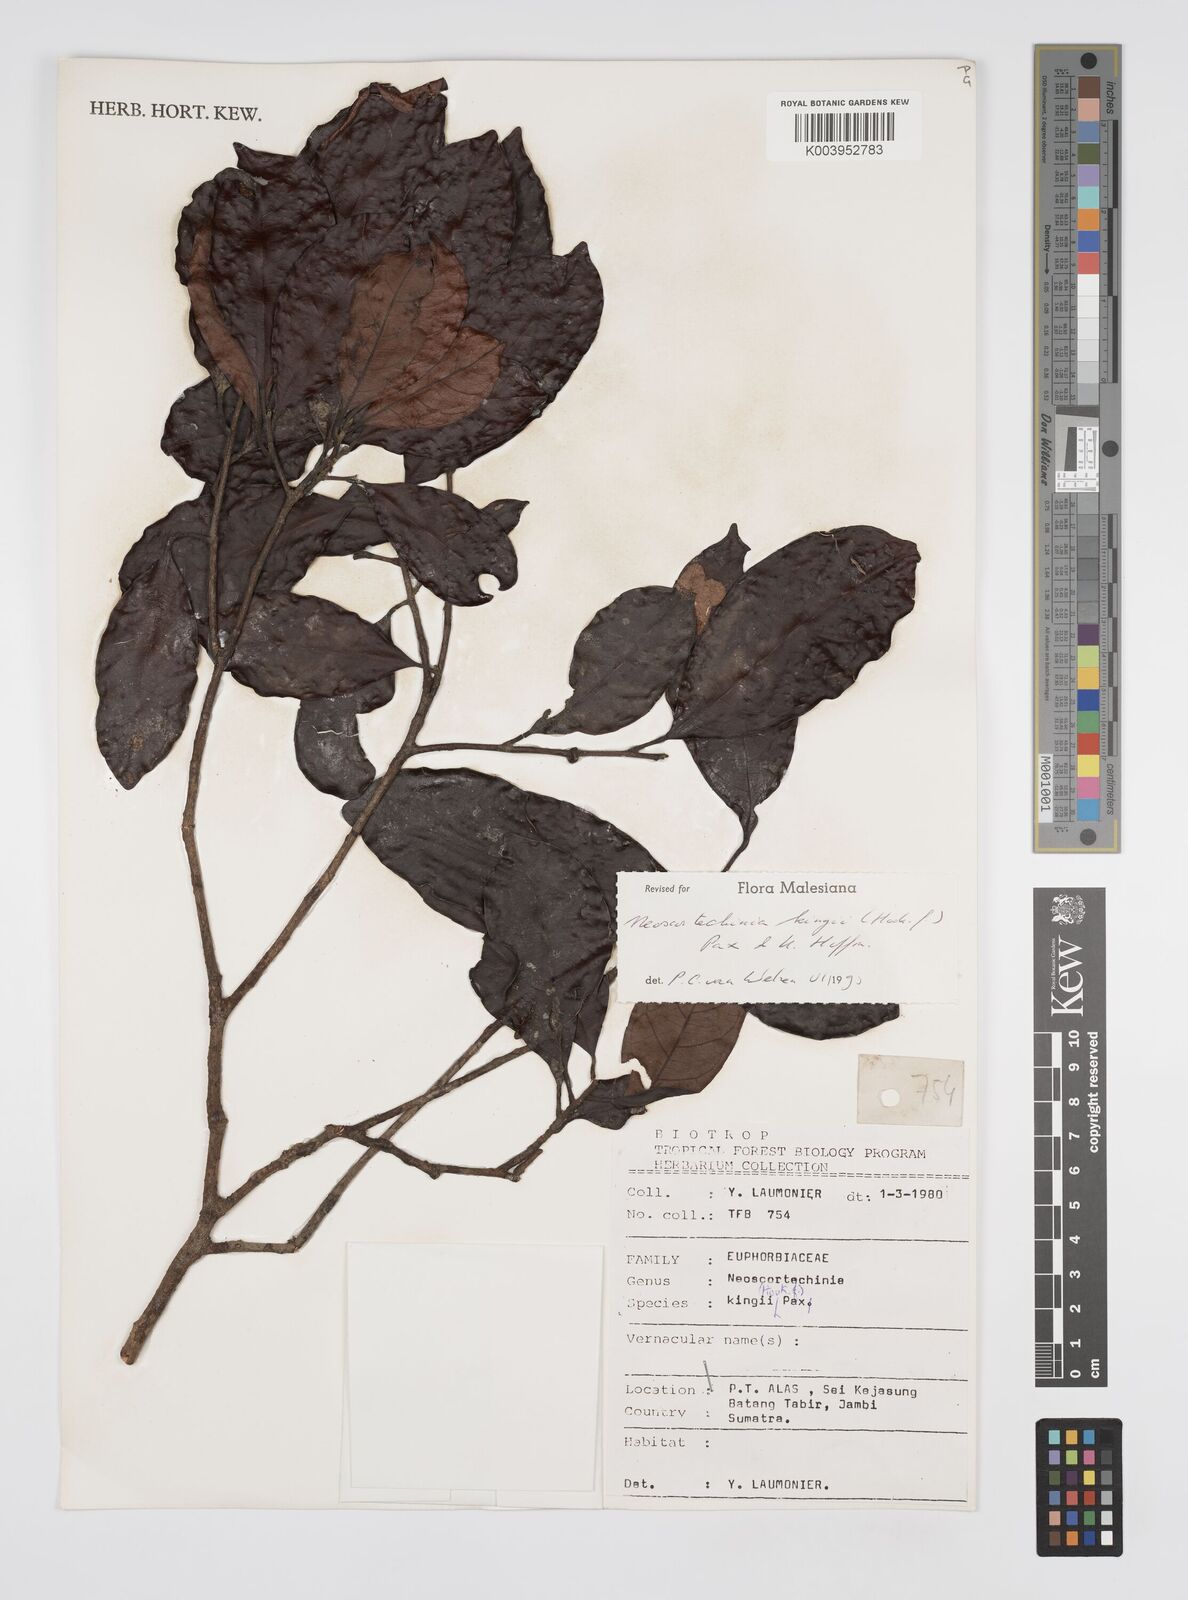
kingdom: Plantae
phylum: Tracheophyta
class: Magnoliopsida
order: Malpighiales
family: Euphorbiaceae
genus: Neoscortechinia
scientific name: Neoscortechinia kingii
